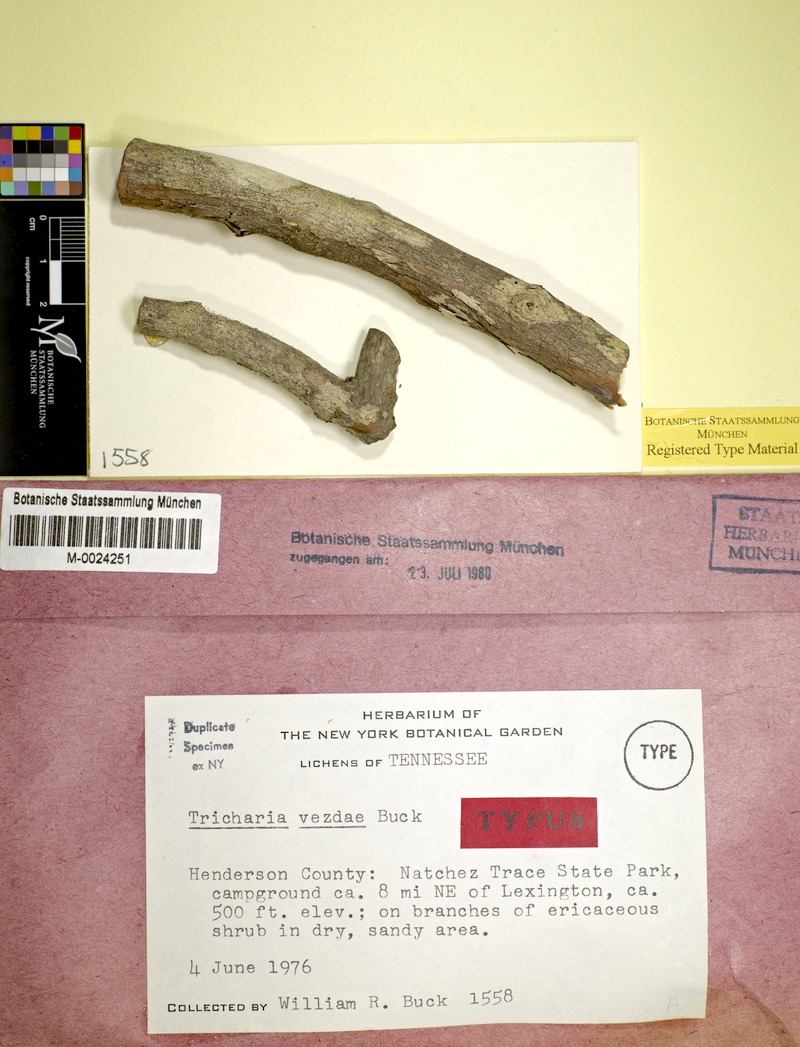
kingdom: Fungi
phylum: Ascomycota
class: Lecanoromycetes
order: Ostropales
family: Gomphillaceae
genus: Gyalideopsis
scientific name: Gyalideopsis buckii
